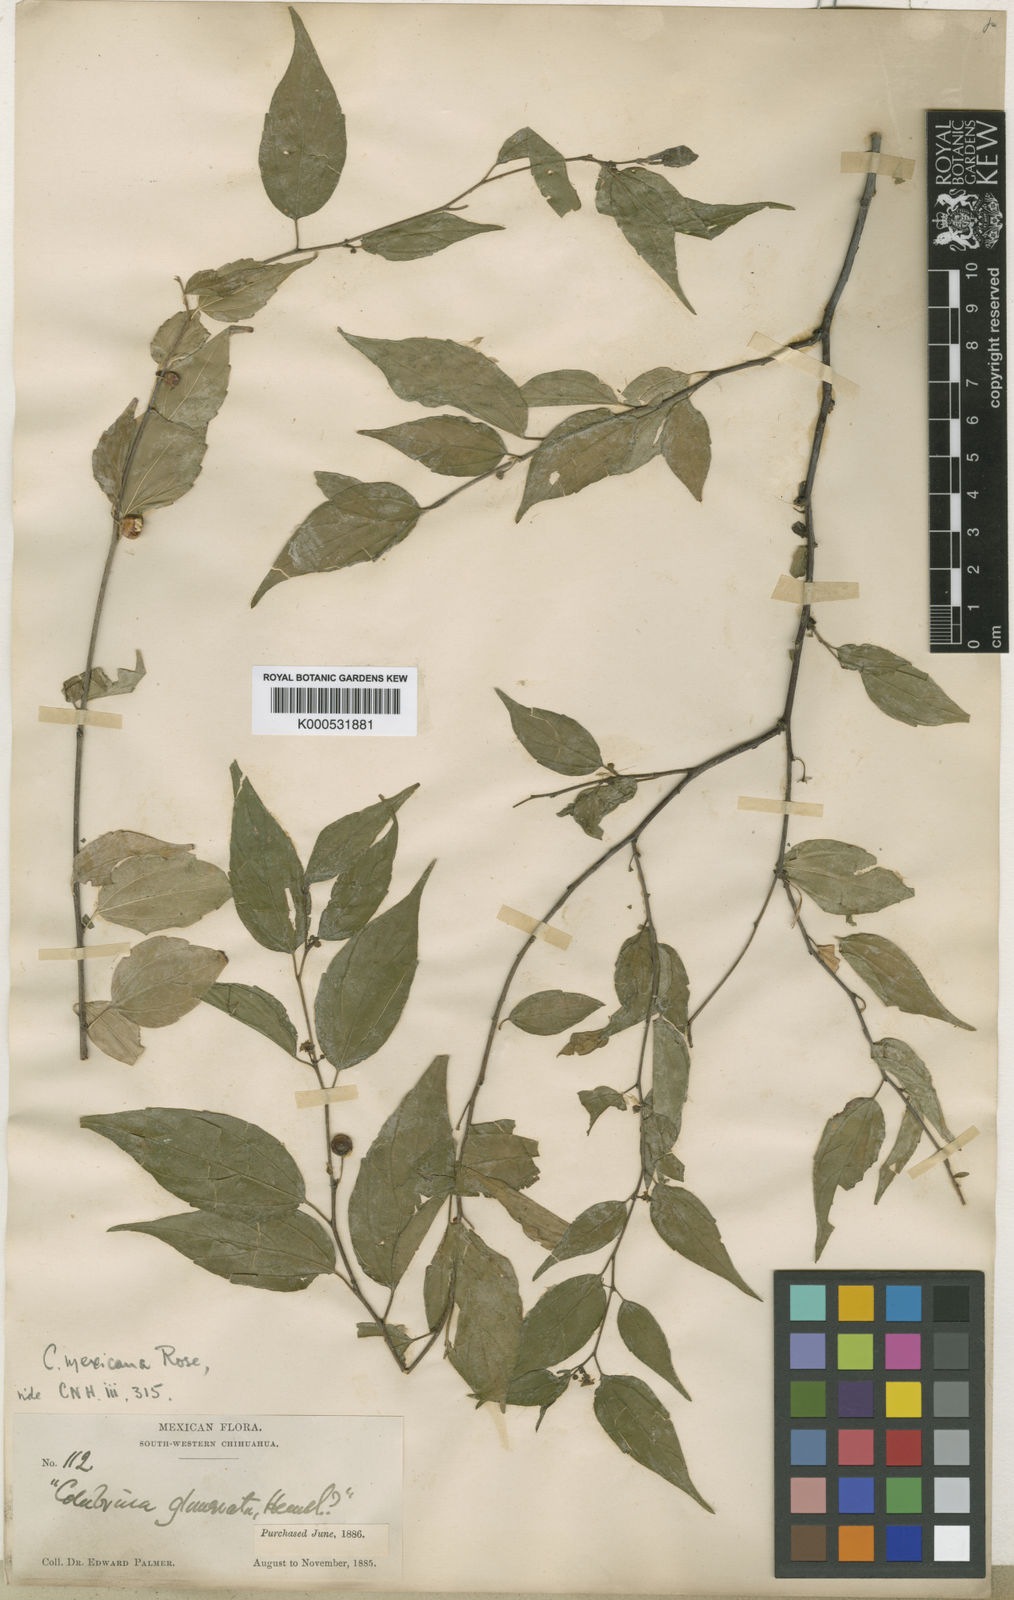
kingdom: Plantae
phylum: Tracheophyta
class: Magnoliopsida
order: Rosales
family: Rhamnaceae
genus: Colubrina
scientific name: Colubrina triflora
